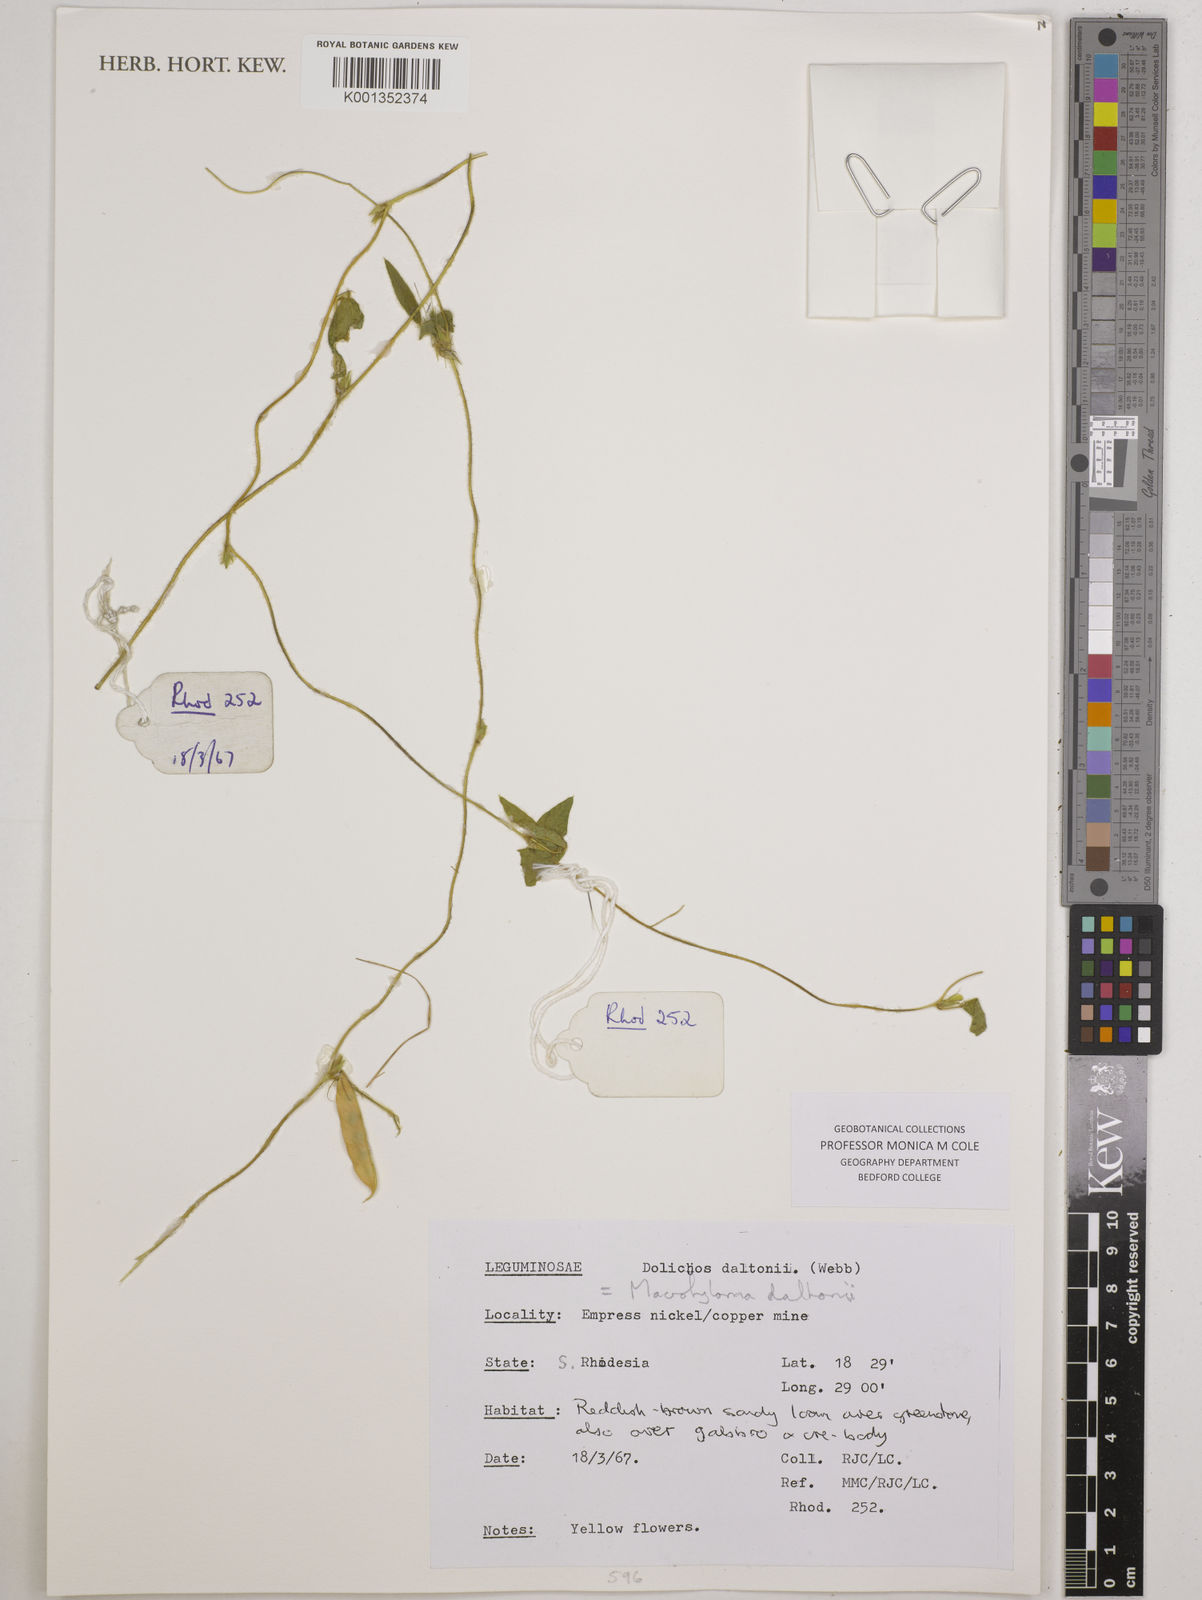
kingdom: Plantae
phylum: Tracheophyta
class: Magnoliopsida
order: Fabales
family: Fabaceae
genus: Macrotyloma
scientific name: Macrotyloma daltonii
